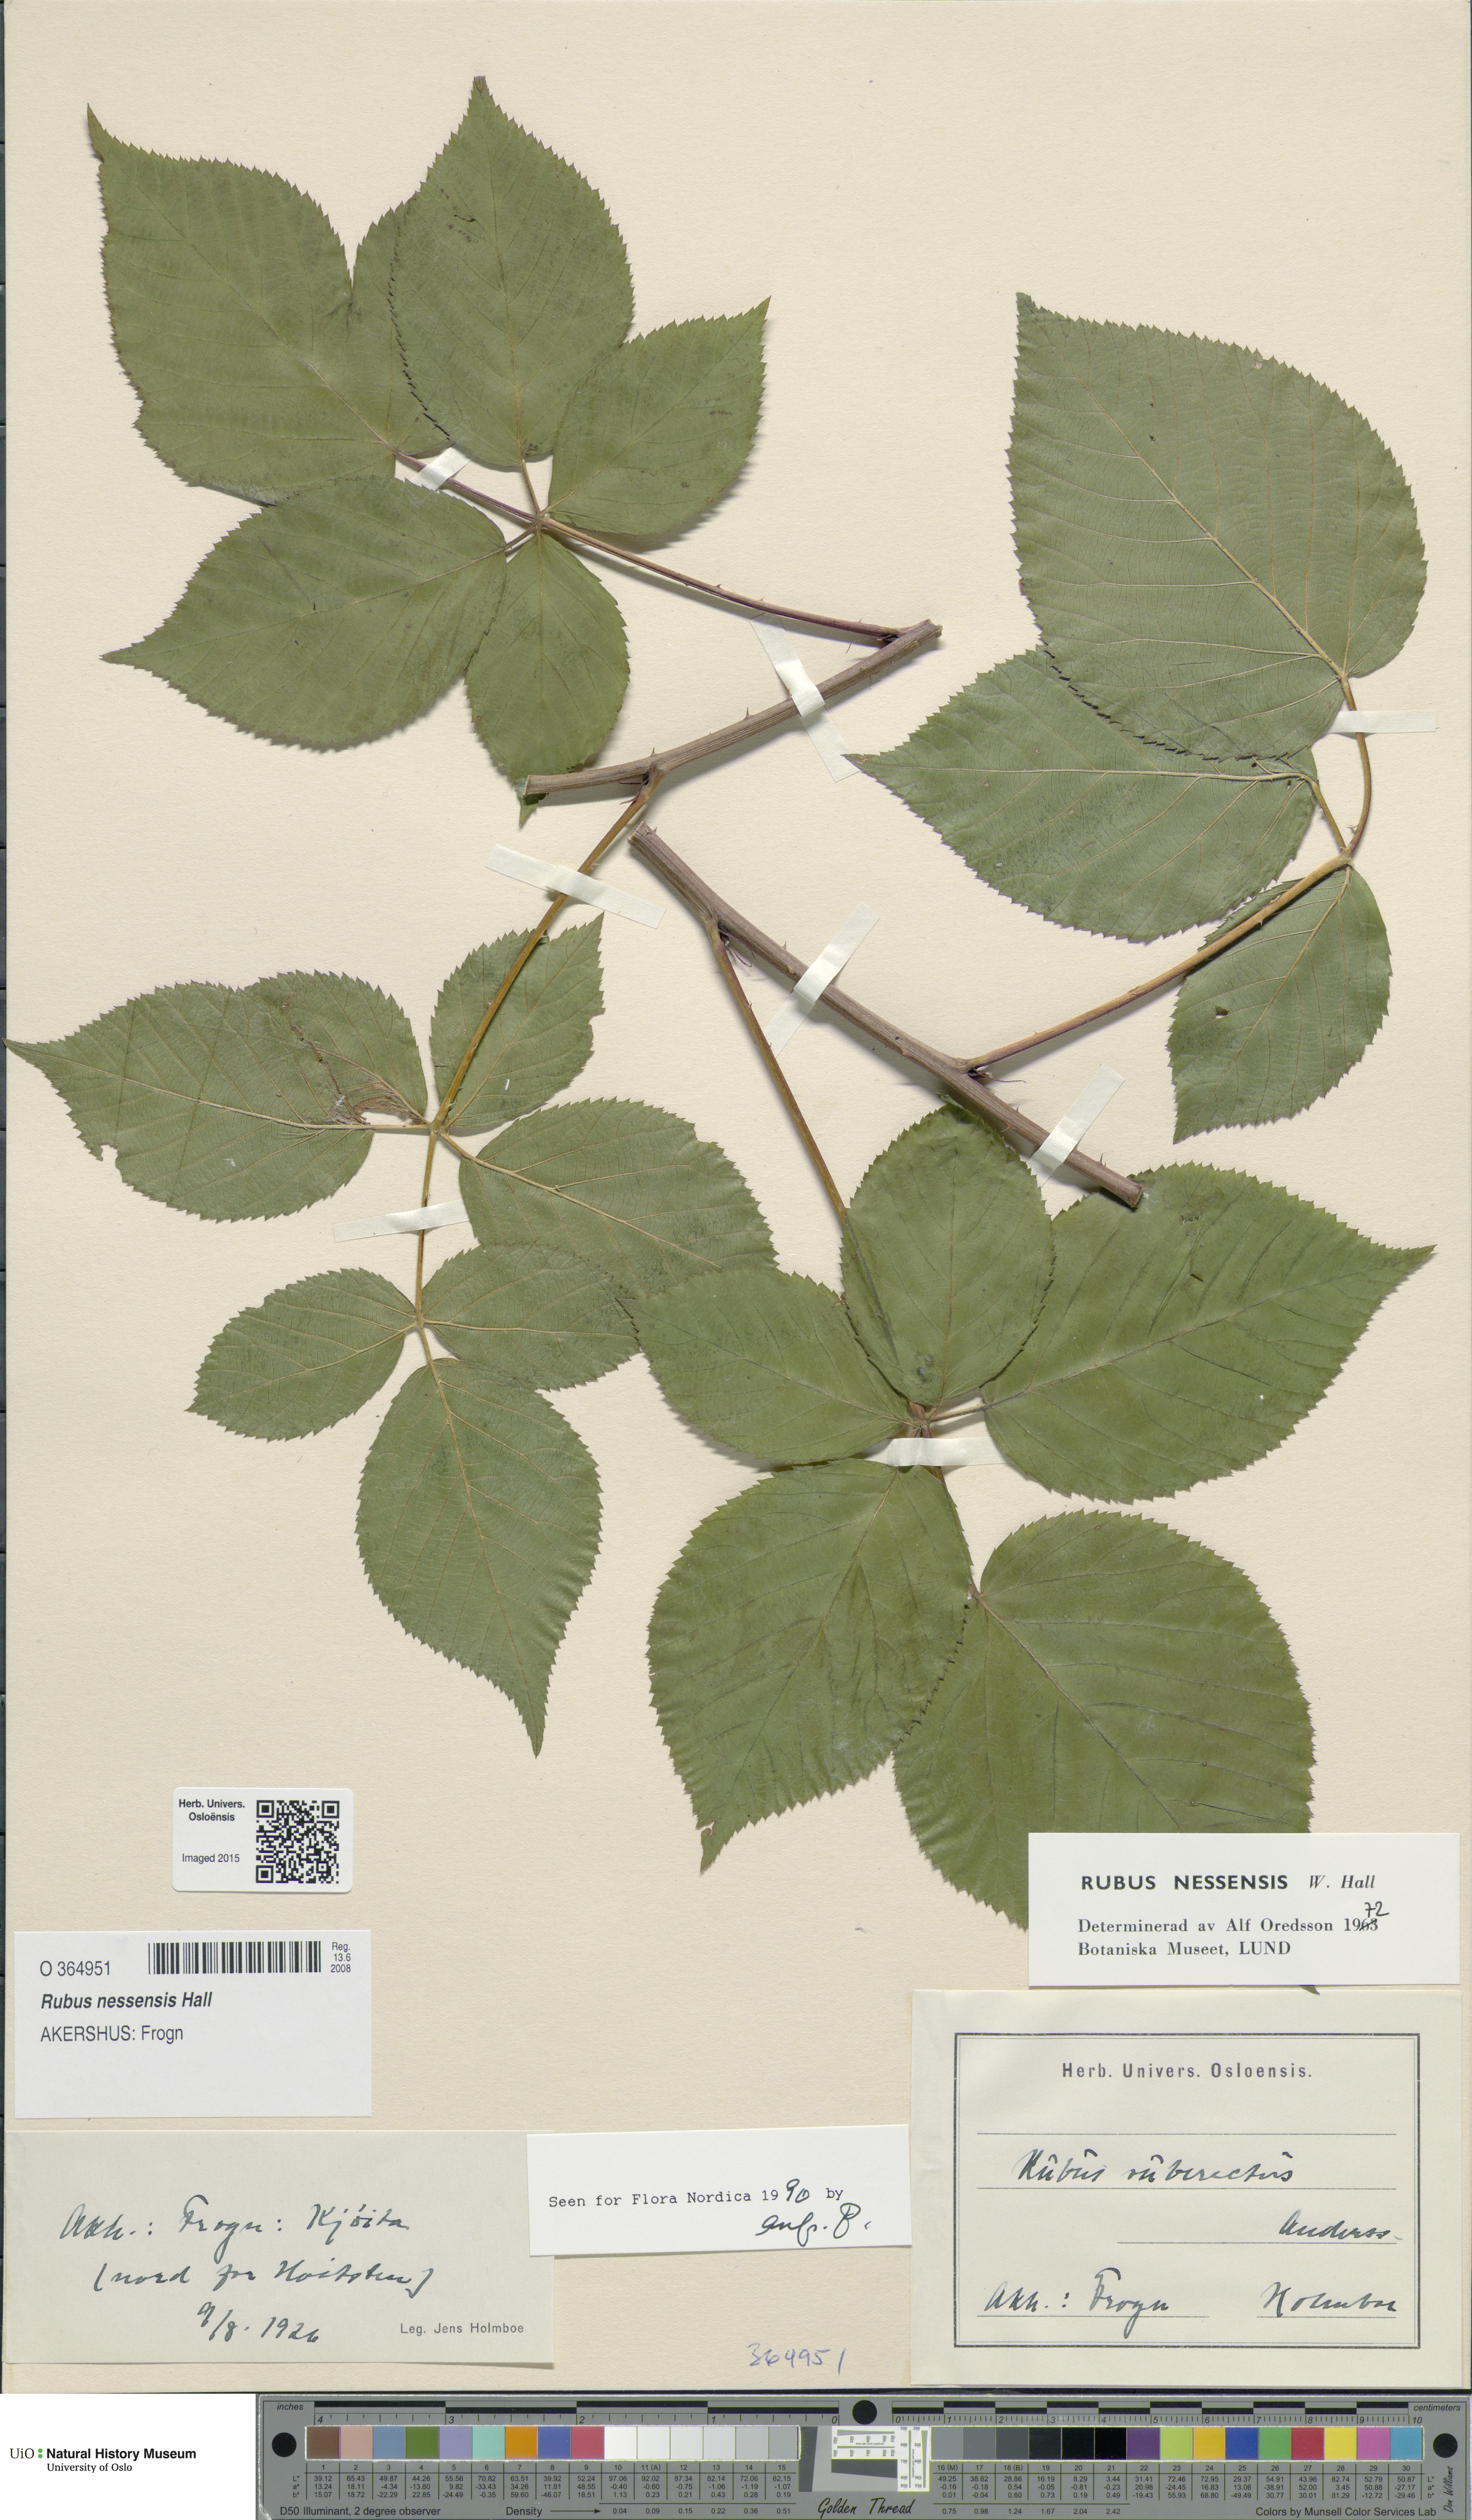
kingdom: Plantae
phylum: Tracheophyta
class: Magnoliopsida
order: Rosales
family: Rosaceae
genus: Rubus
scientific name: Rubus polonicus
